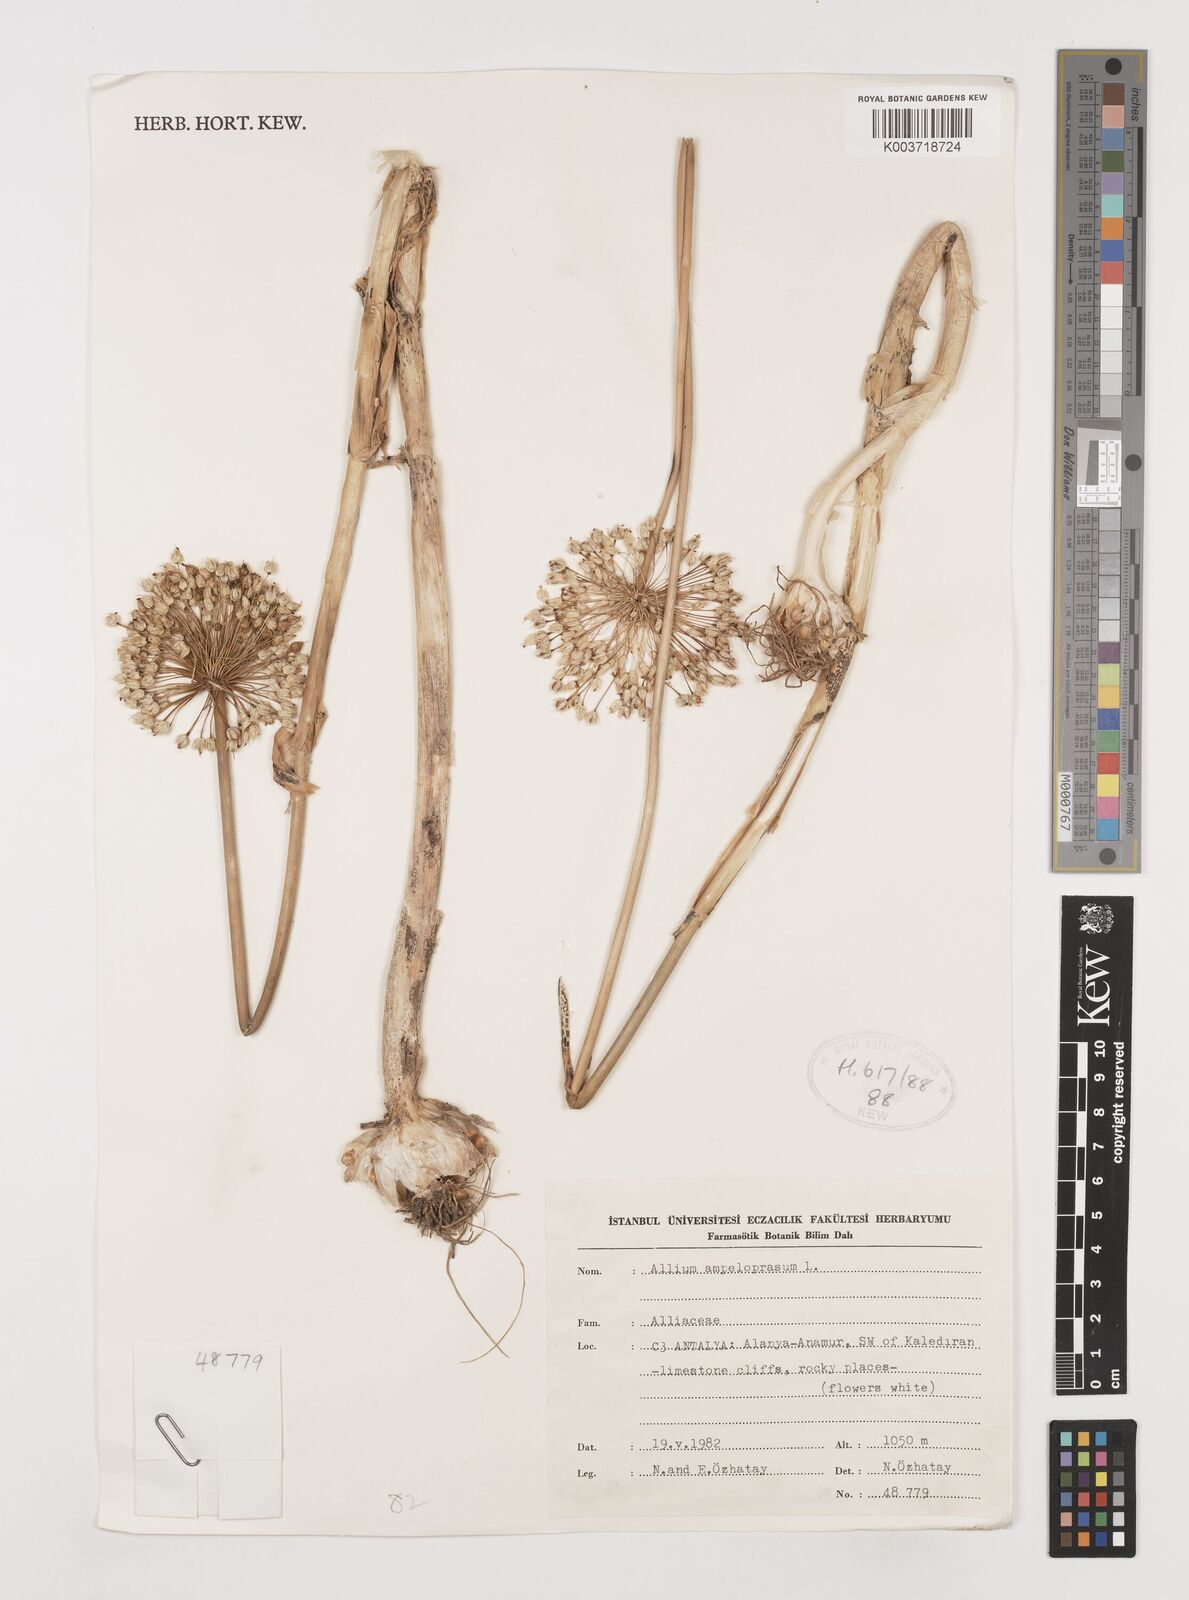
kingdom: Plantae
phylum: Tracheophyta
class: Liliopsida
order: Asparagales
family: Amaryllidaceae
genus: Allium
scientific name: Allium ampeloprasum
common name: Wild leek
